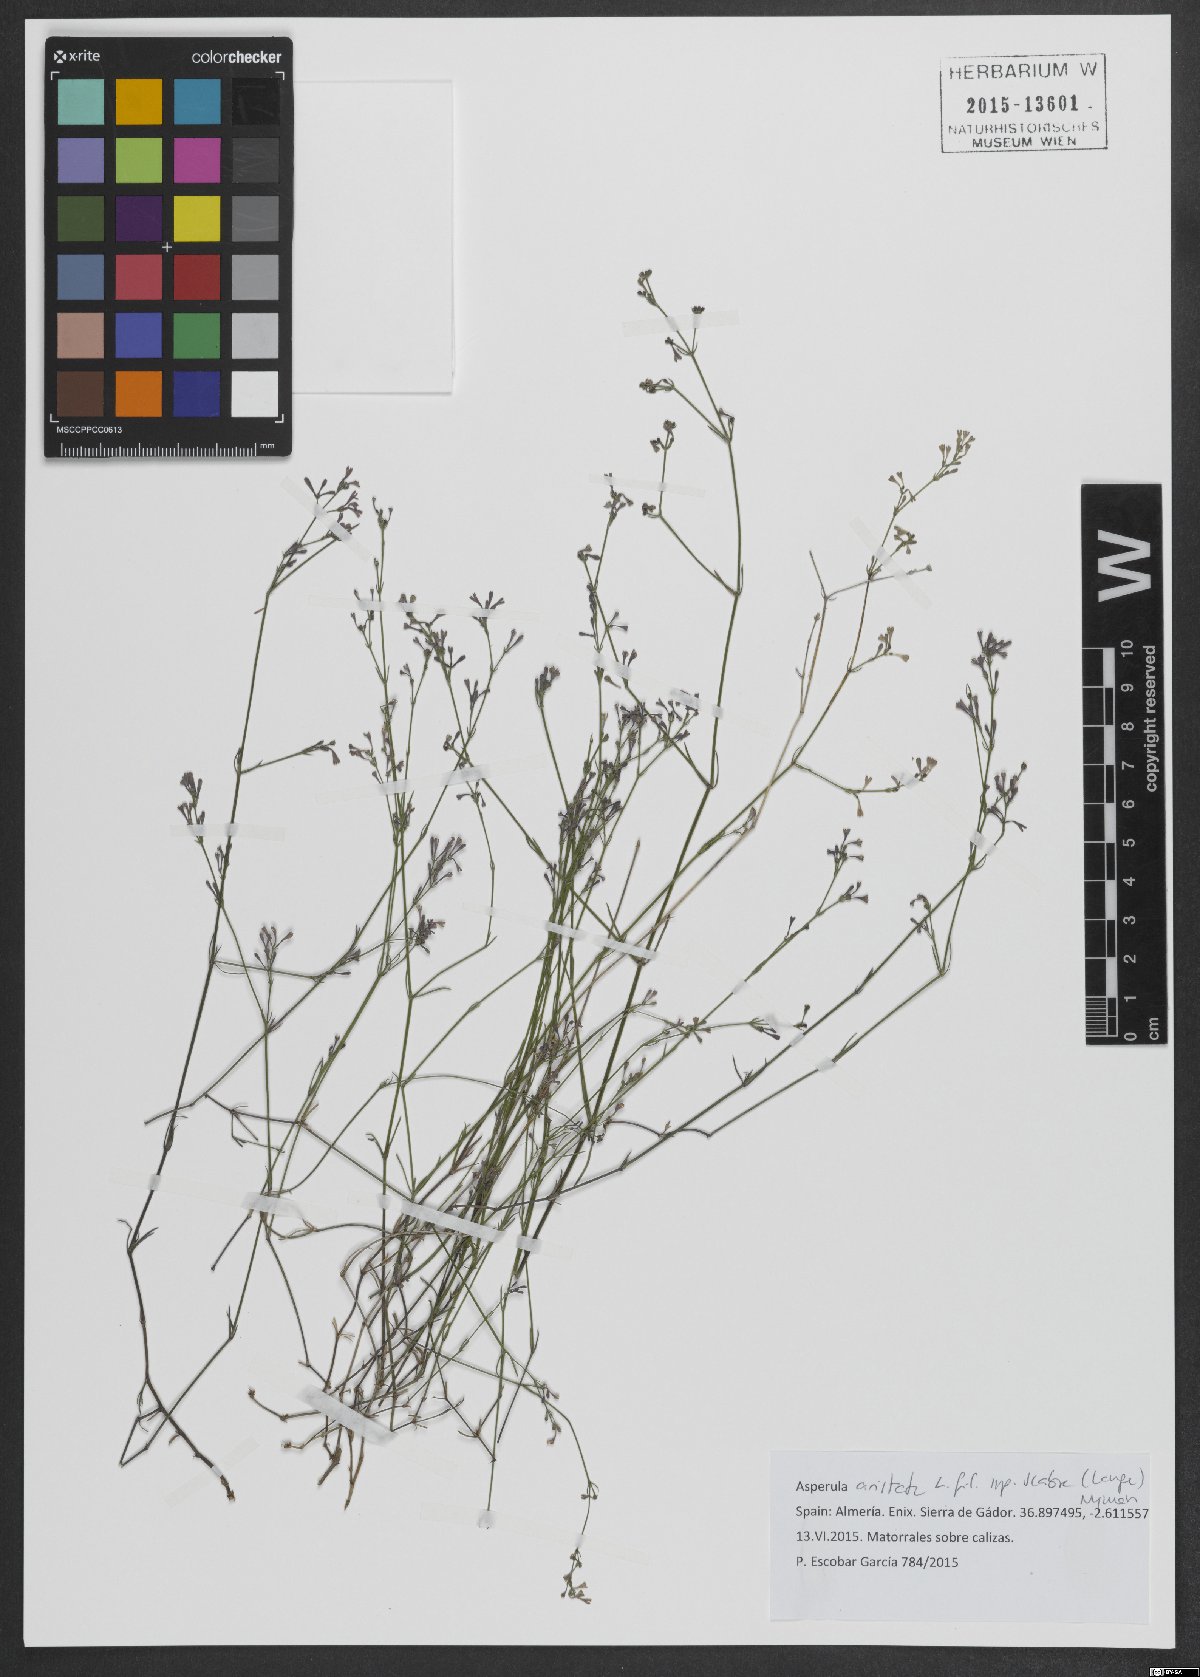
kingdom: Plantae
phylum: Tracheophyta
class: Magnoliopsida
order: Gentianales
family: Rubiaceae
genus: Cynanchica
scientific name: Cynanchica aristata
